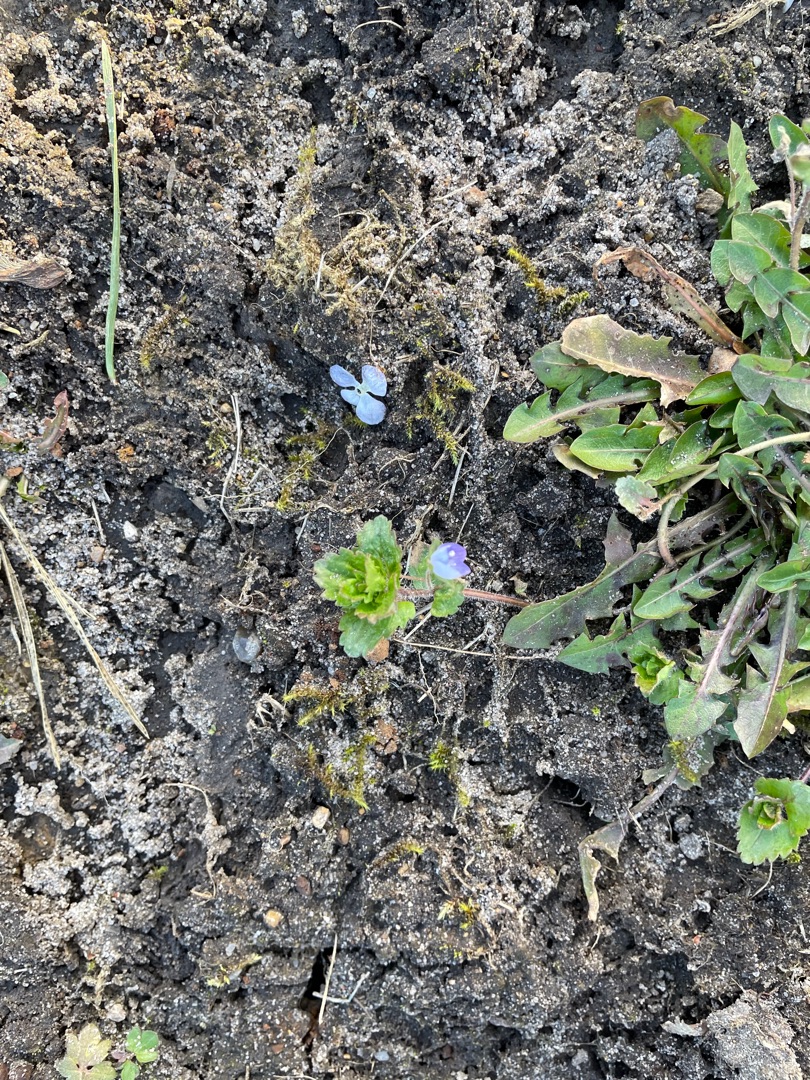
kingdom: Plantae
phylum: Tracheophyta
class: Magnoliopsida
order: Lamiales
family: Plantaginaceae
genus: Veronica
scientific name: Veronica chamaedrys
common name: Tveskægget ærenpris
